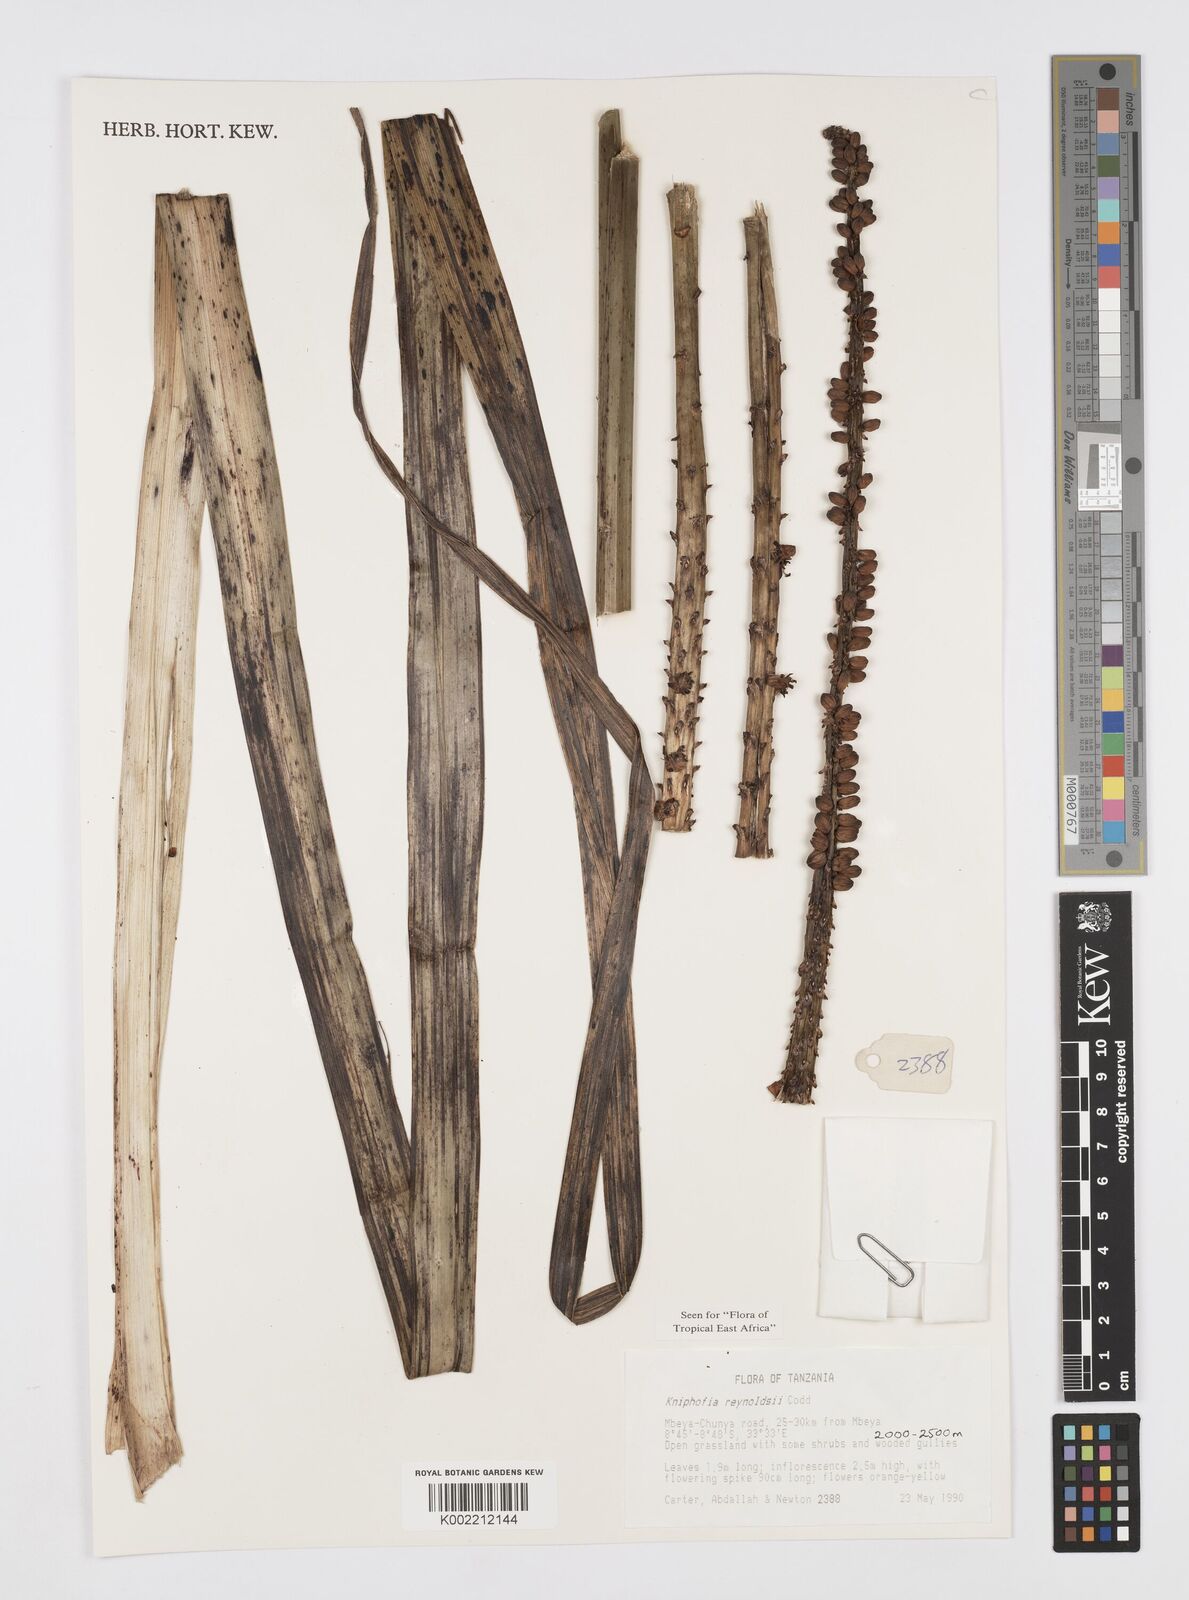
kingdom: Plantae
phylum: Tracheophyta
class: Liliopsida
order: Asparagales
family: Asphodelaceae
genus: Kniphofia
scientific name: Kniphofia reynoldsii
